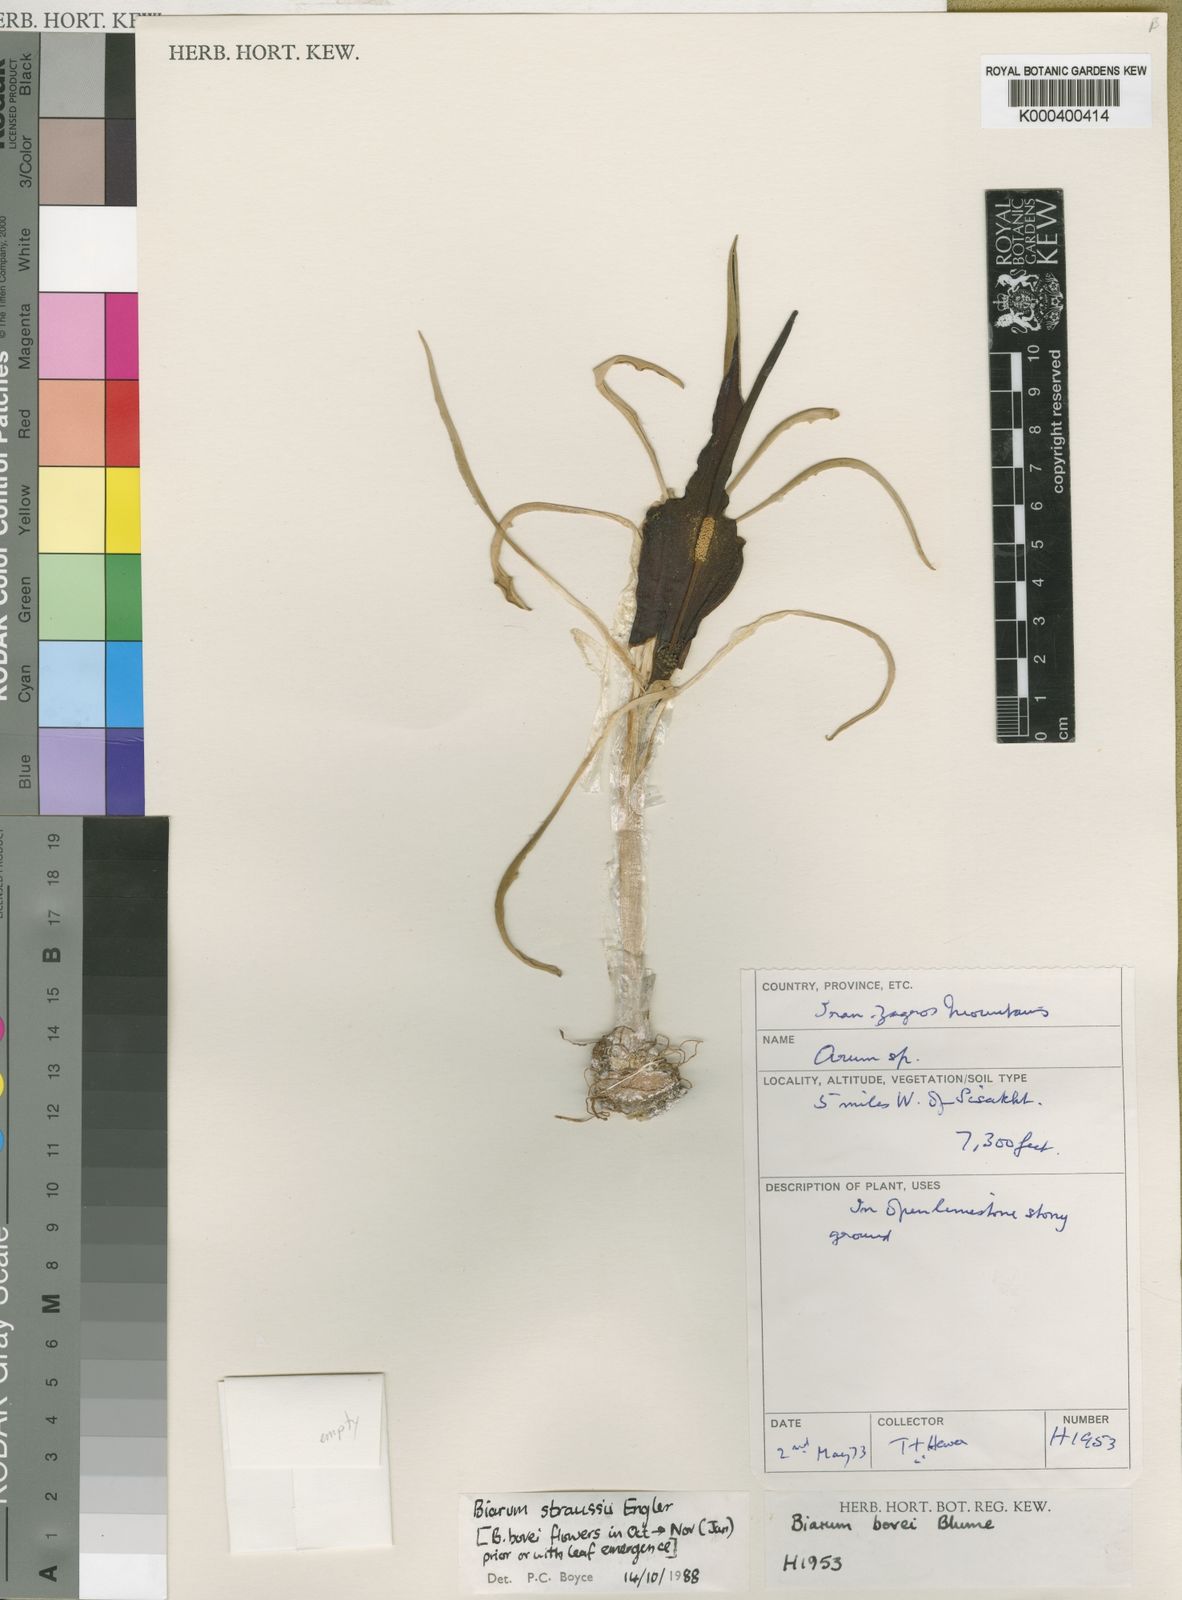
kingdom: Plantae
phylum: Tracheophyta
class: Liliopsida
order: Alismatales
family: Araceae
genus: Biarum
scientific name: Biarum straussii
